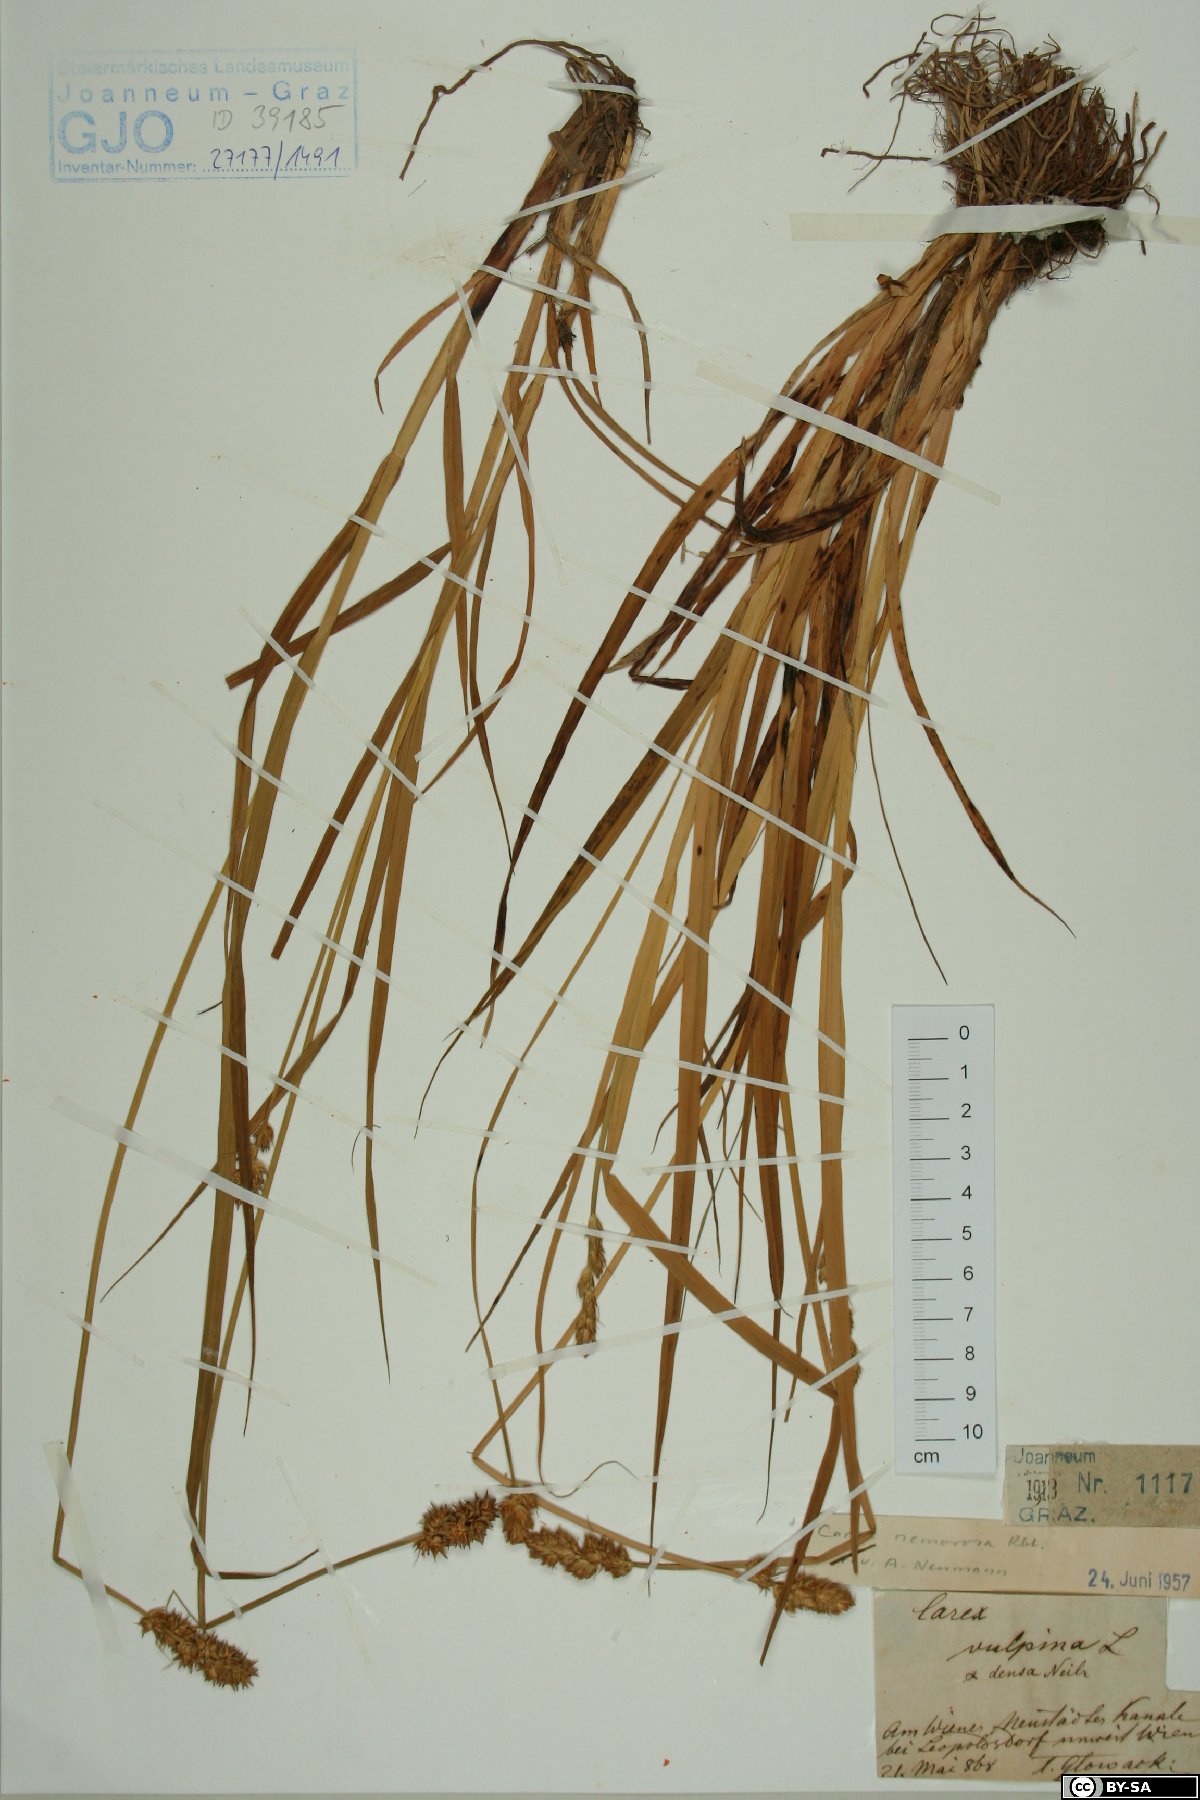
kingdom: Plantae
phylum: Tracheophyta
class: Liliopsida
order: Poales
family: Cyperaceae
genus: Carex
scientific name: Carex otrubae
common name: False fox-sedge
